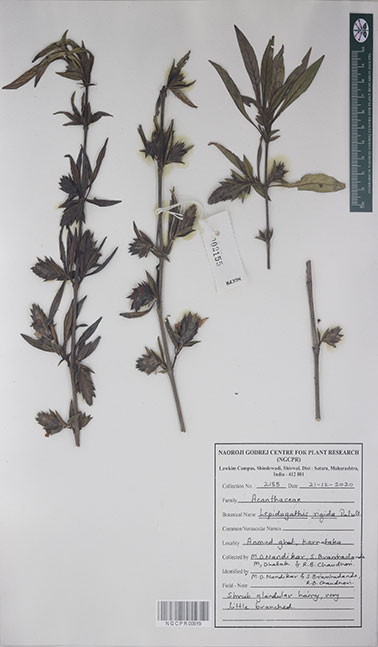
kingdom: Plantae
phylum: Tracheophyta
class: Magnoliopsida
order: Lamiales
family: Acanthaceae
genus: Lepidagathis
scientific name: Lepidagathis rigida
